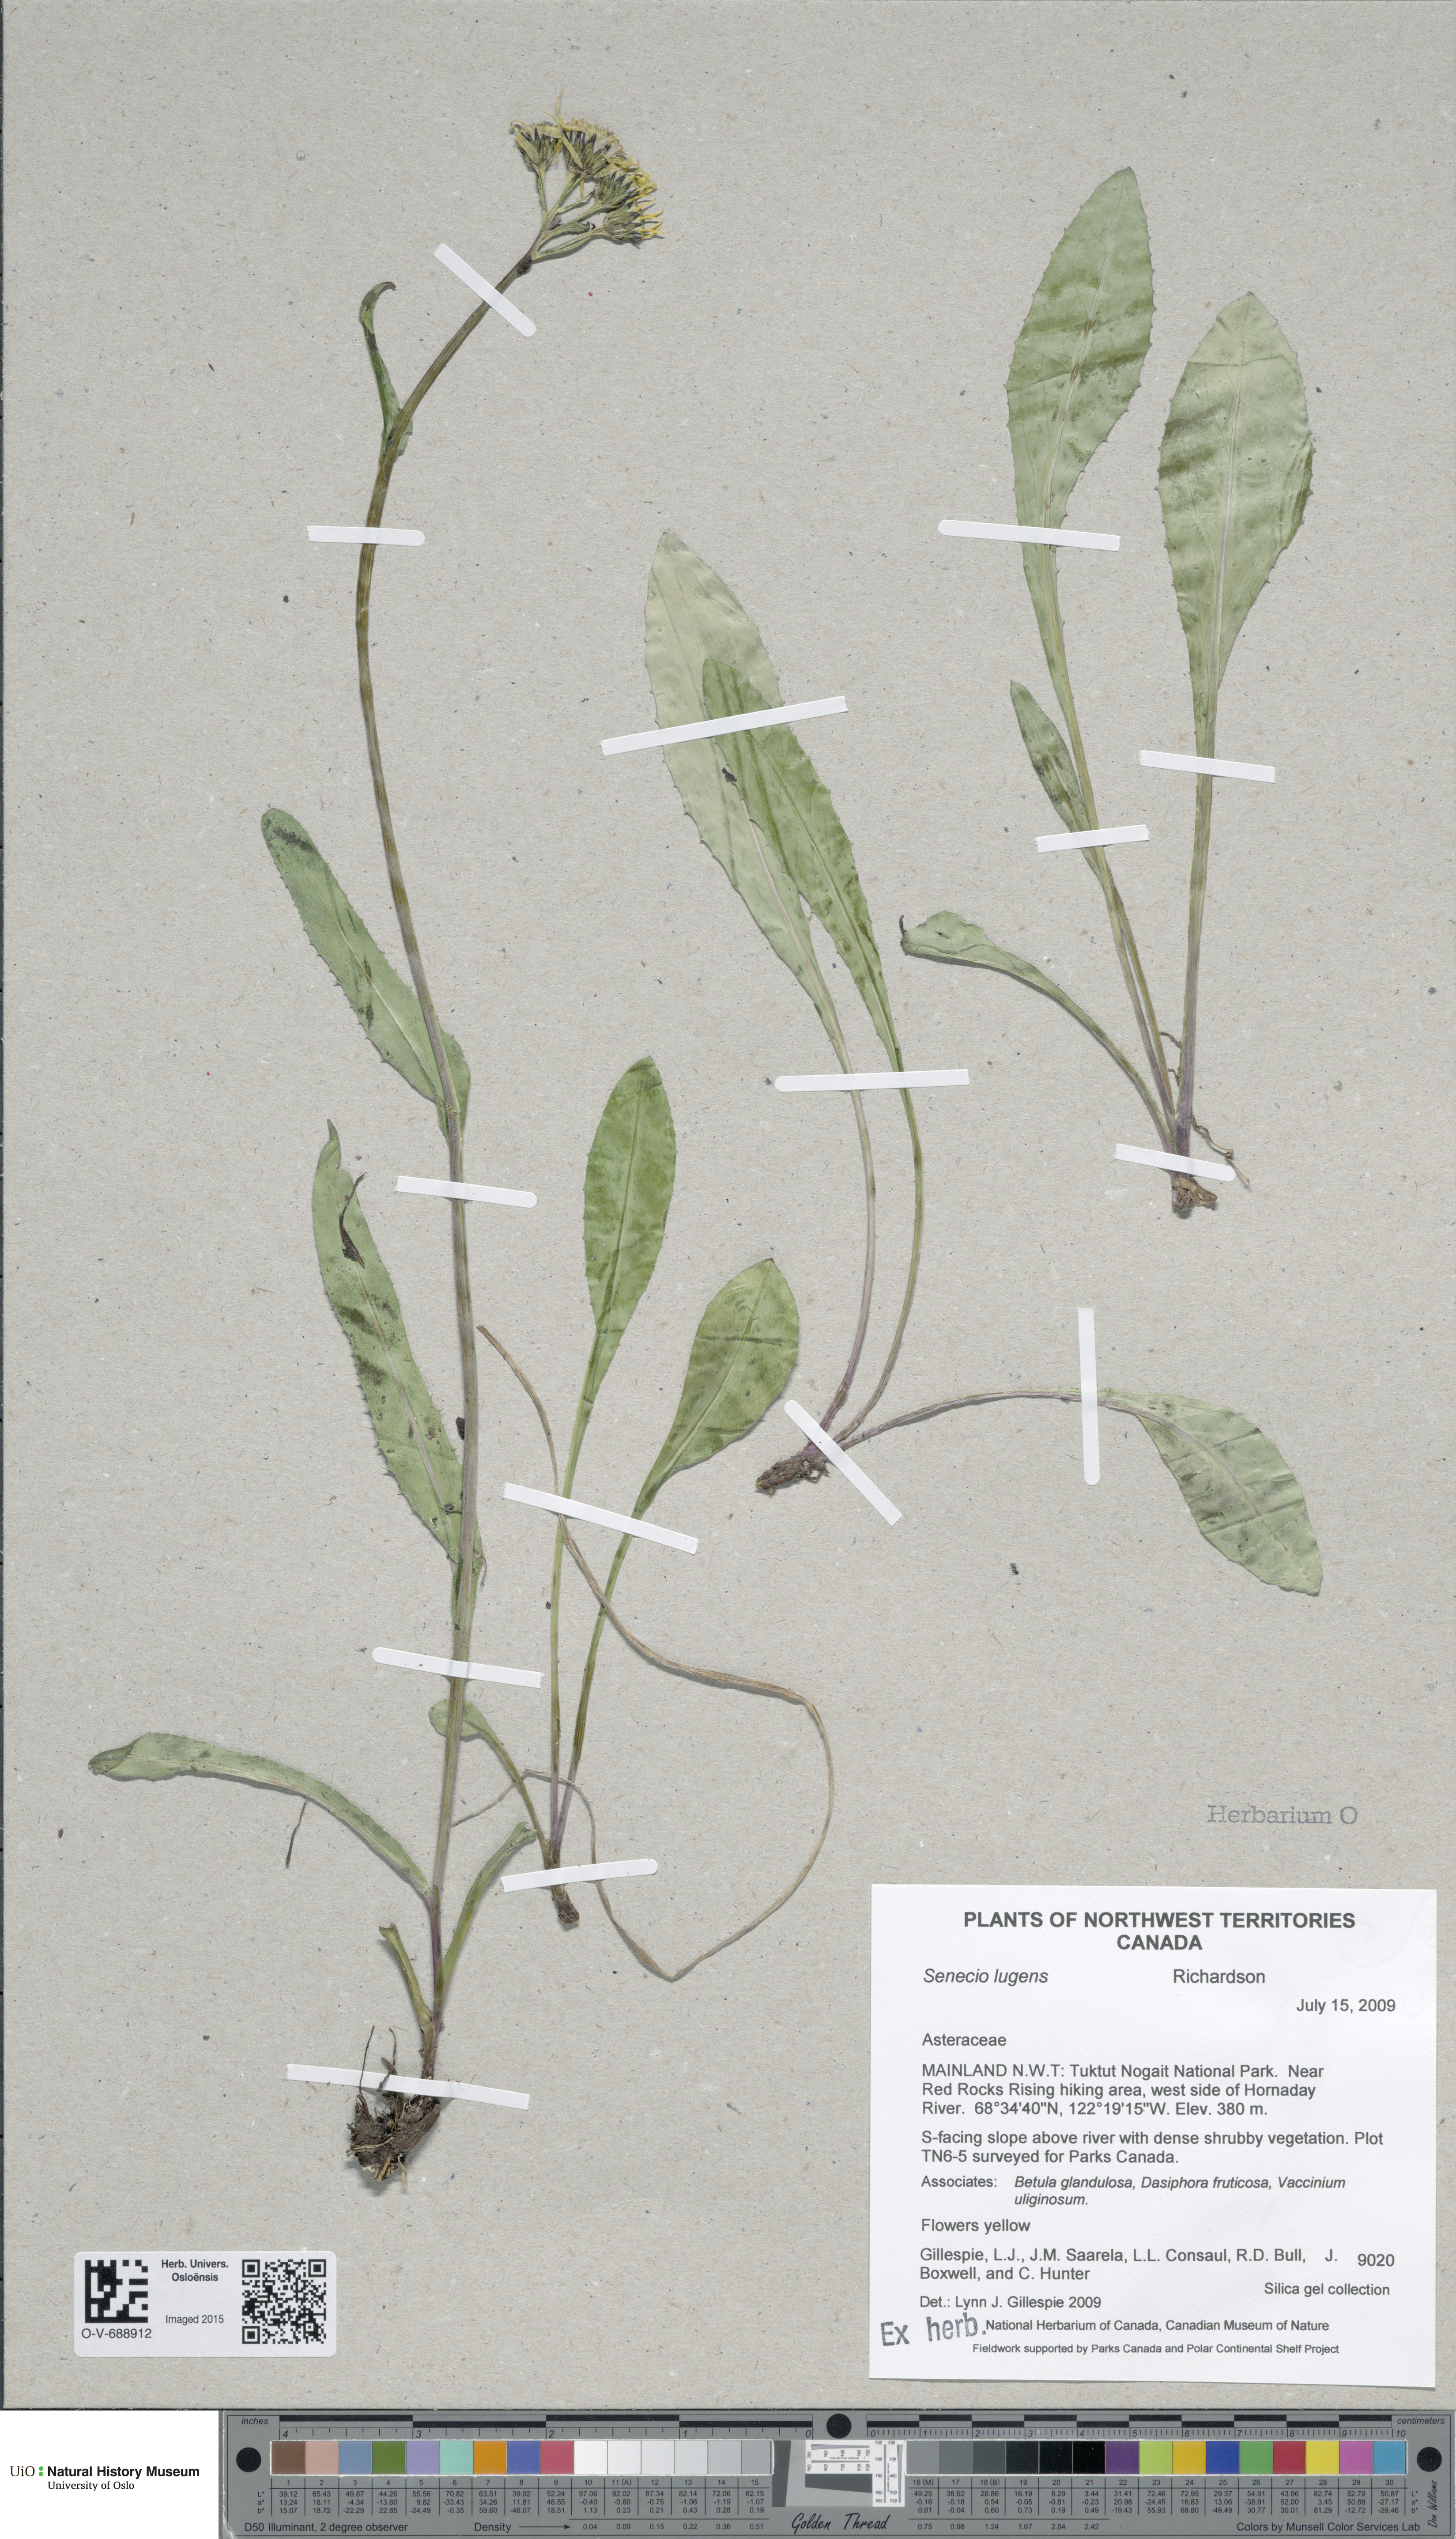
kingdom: Plantae
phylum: Tracheophyta
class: Magnoliopsida
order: Asterales
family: Asteraceae
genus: Senecio
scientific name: Senecio lugens
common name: Black-tip groundsel
